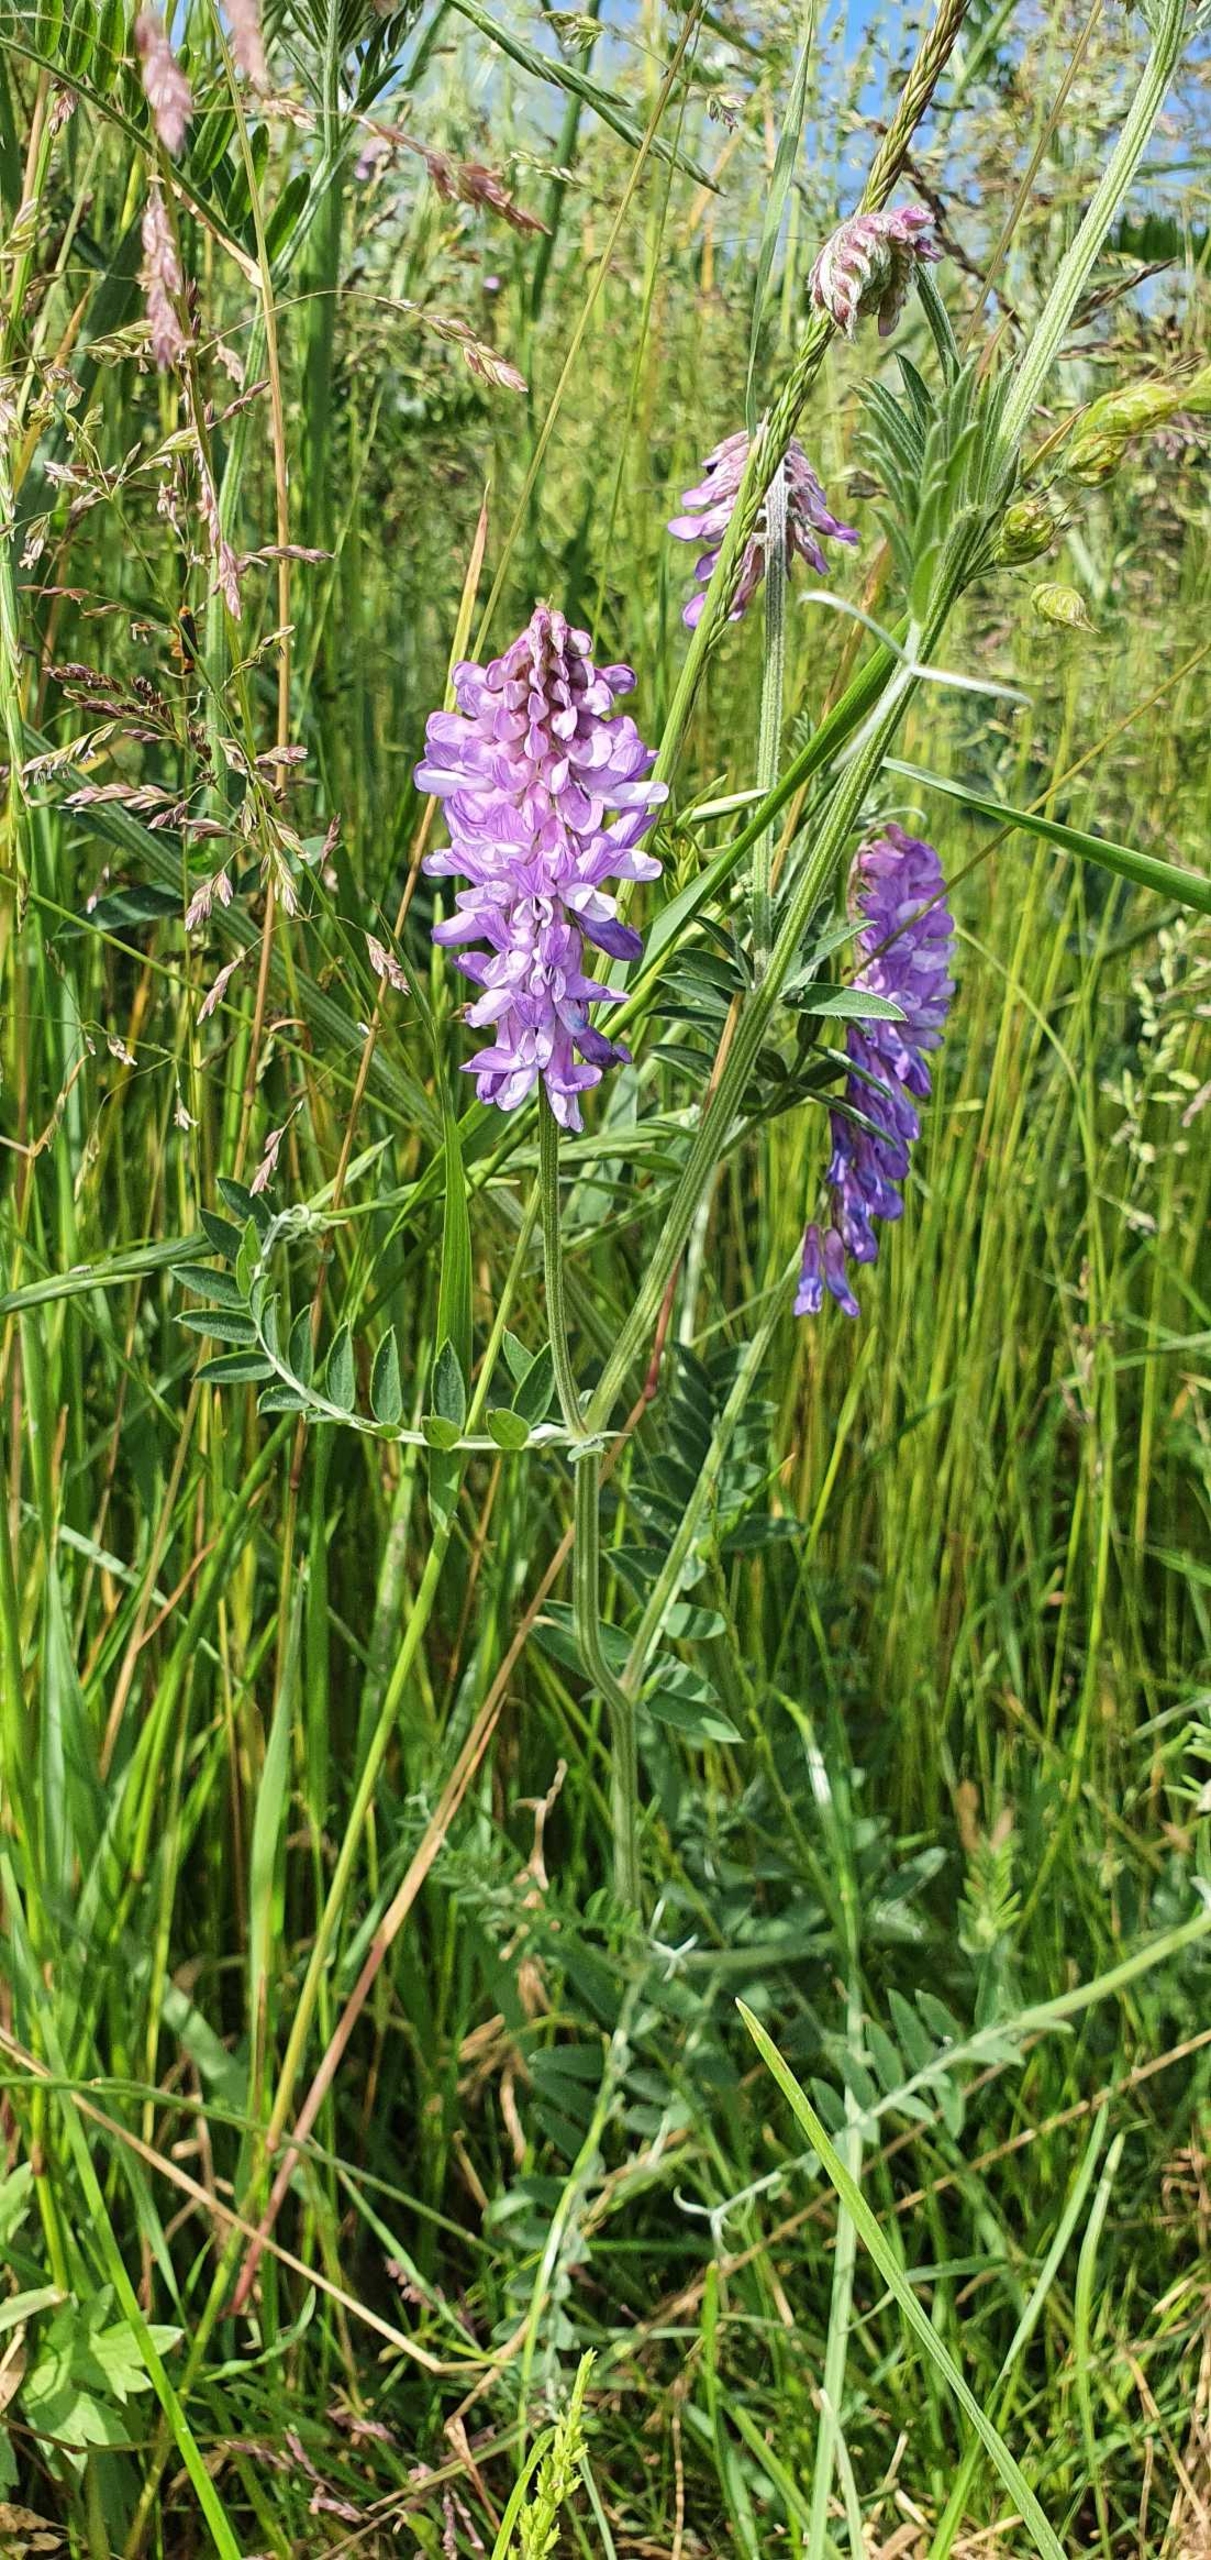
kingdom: Plantae
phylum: Tracheophyta
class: Magnoliopsida
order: Fabales
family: Fabaceae
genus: Vicia
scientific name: Vicia cracca
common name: Muse-vikke
